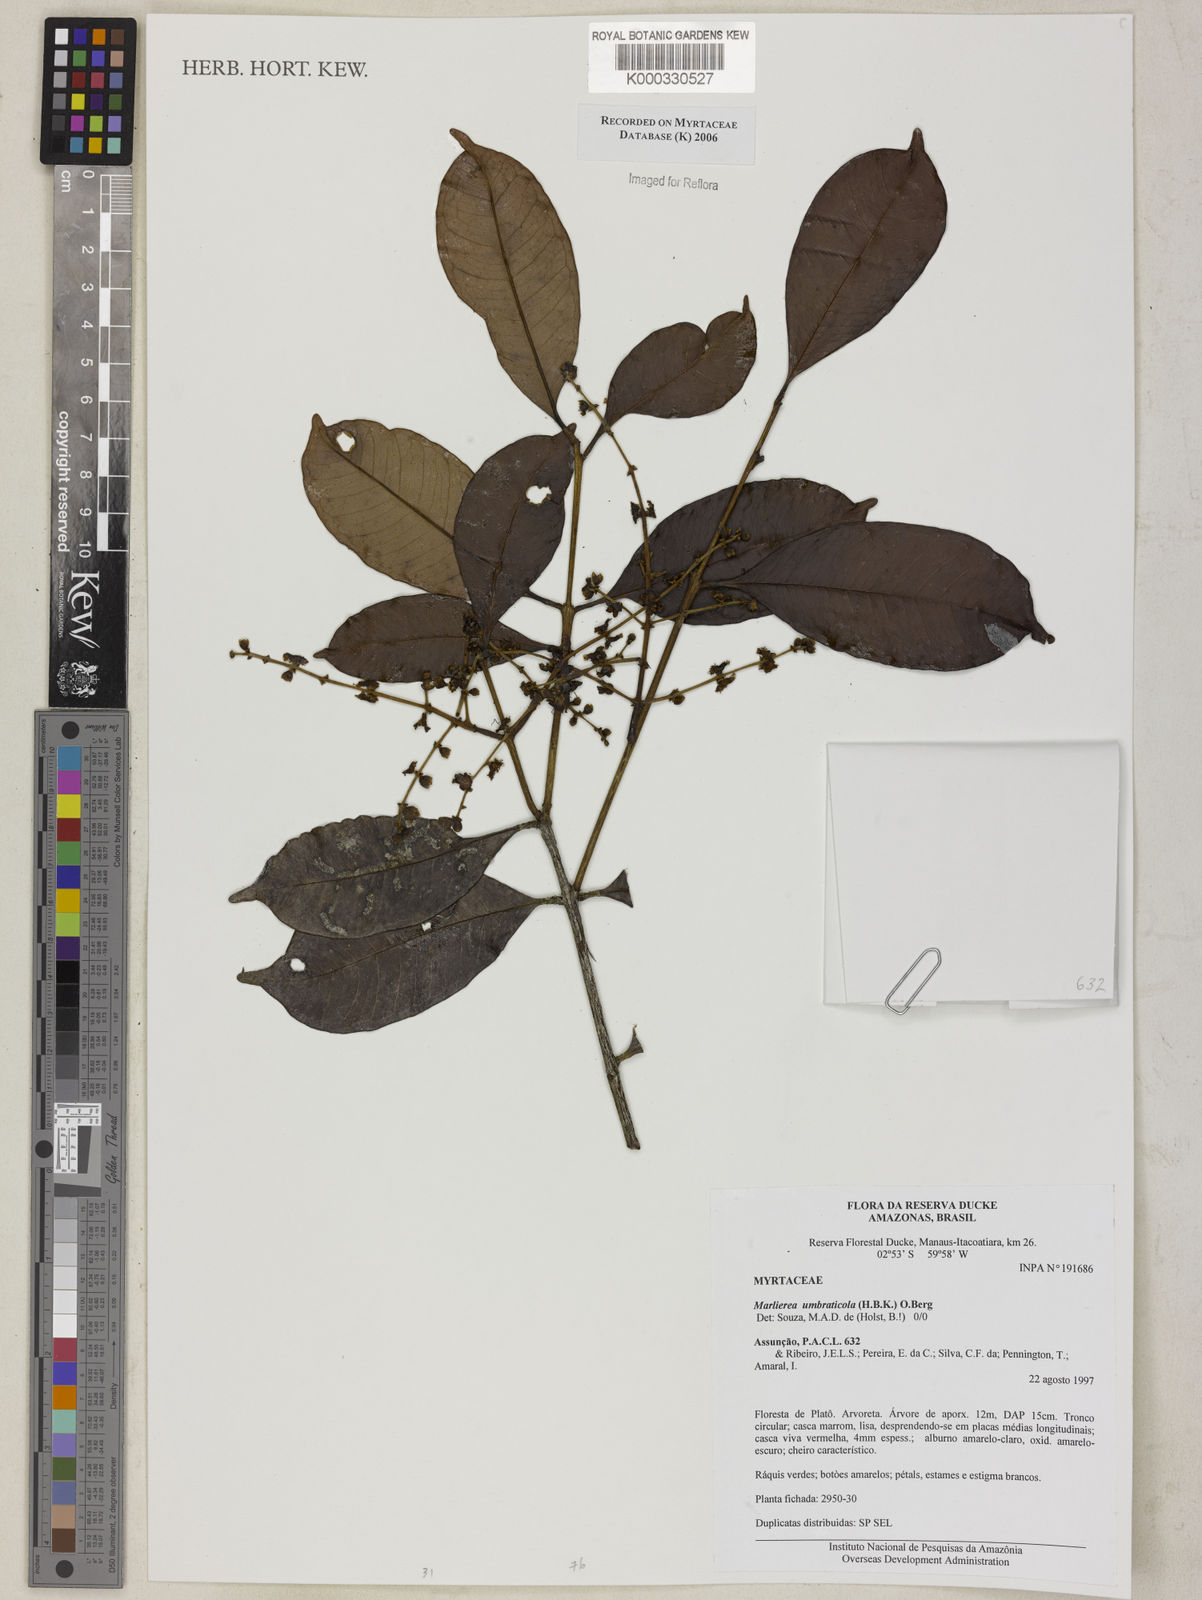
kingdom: Plantae
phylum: Tracheophyta
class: Magnoliopsida
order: Myrtales
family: Myrtaceae
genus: Myrcia
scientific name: Myrcia umbraticola
